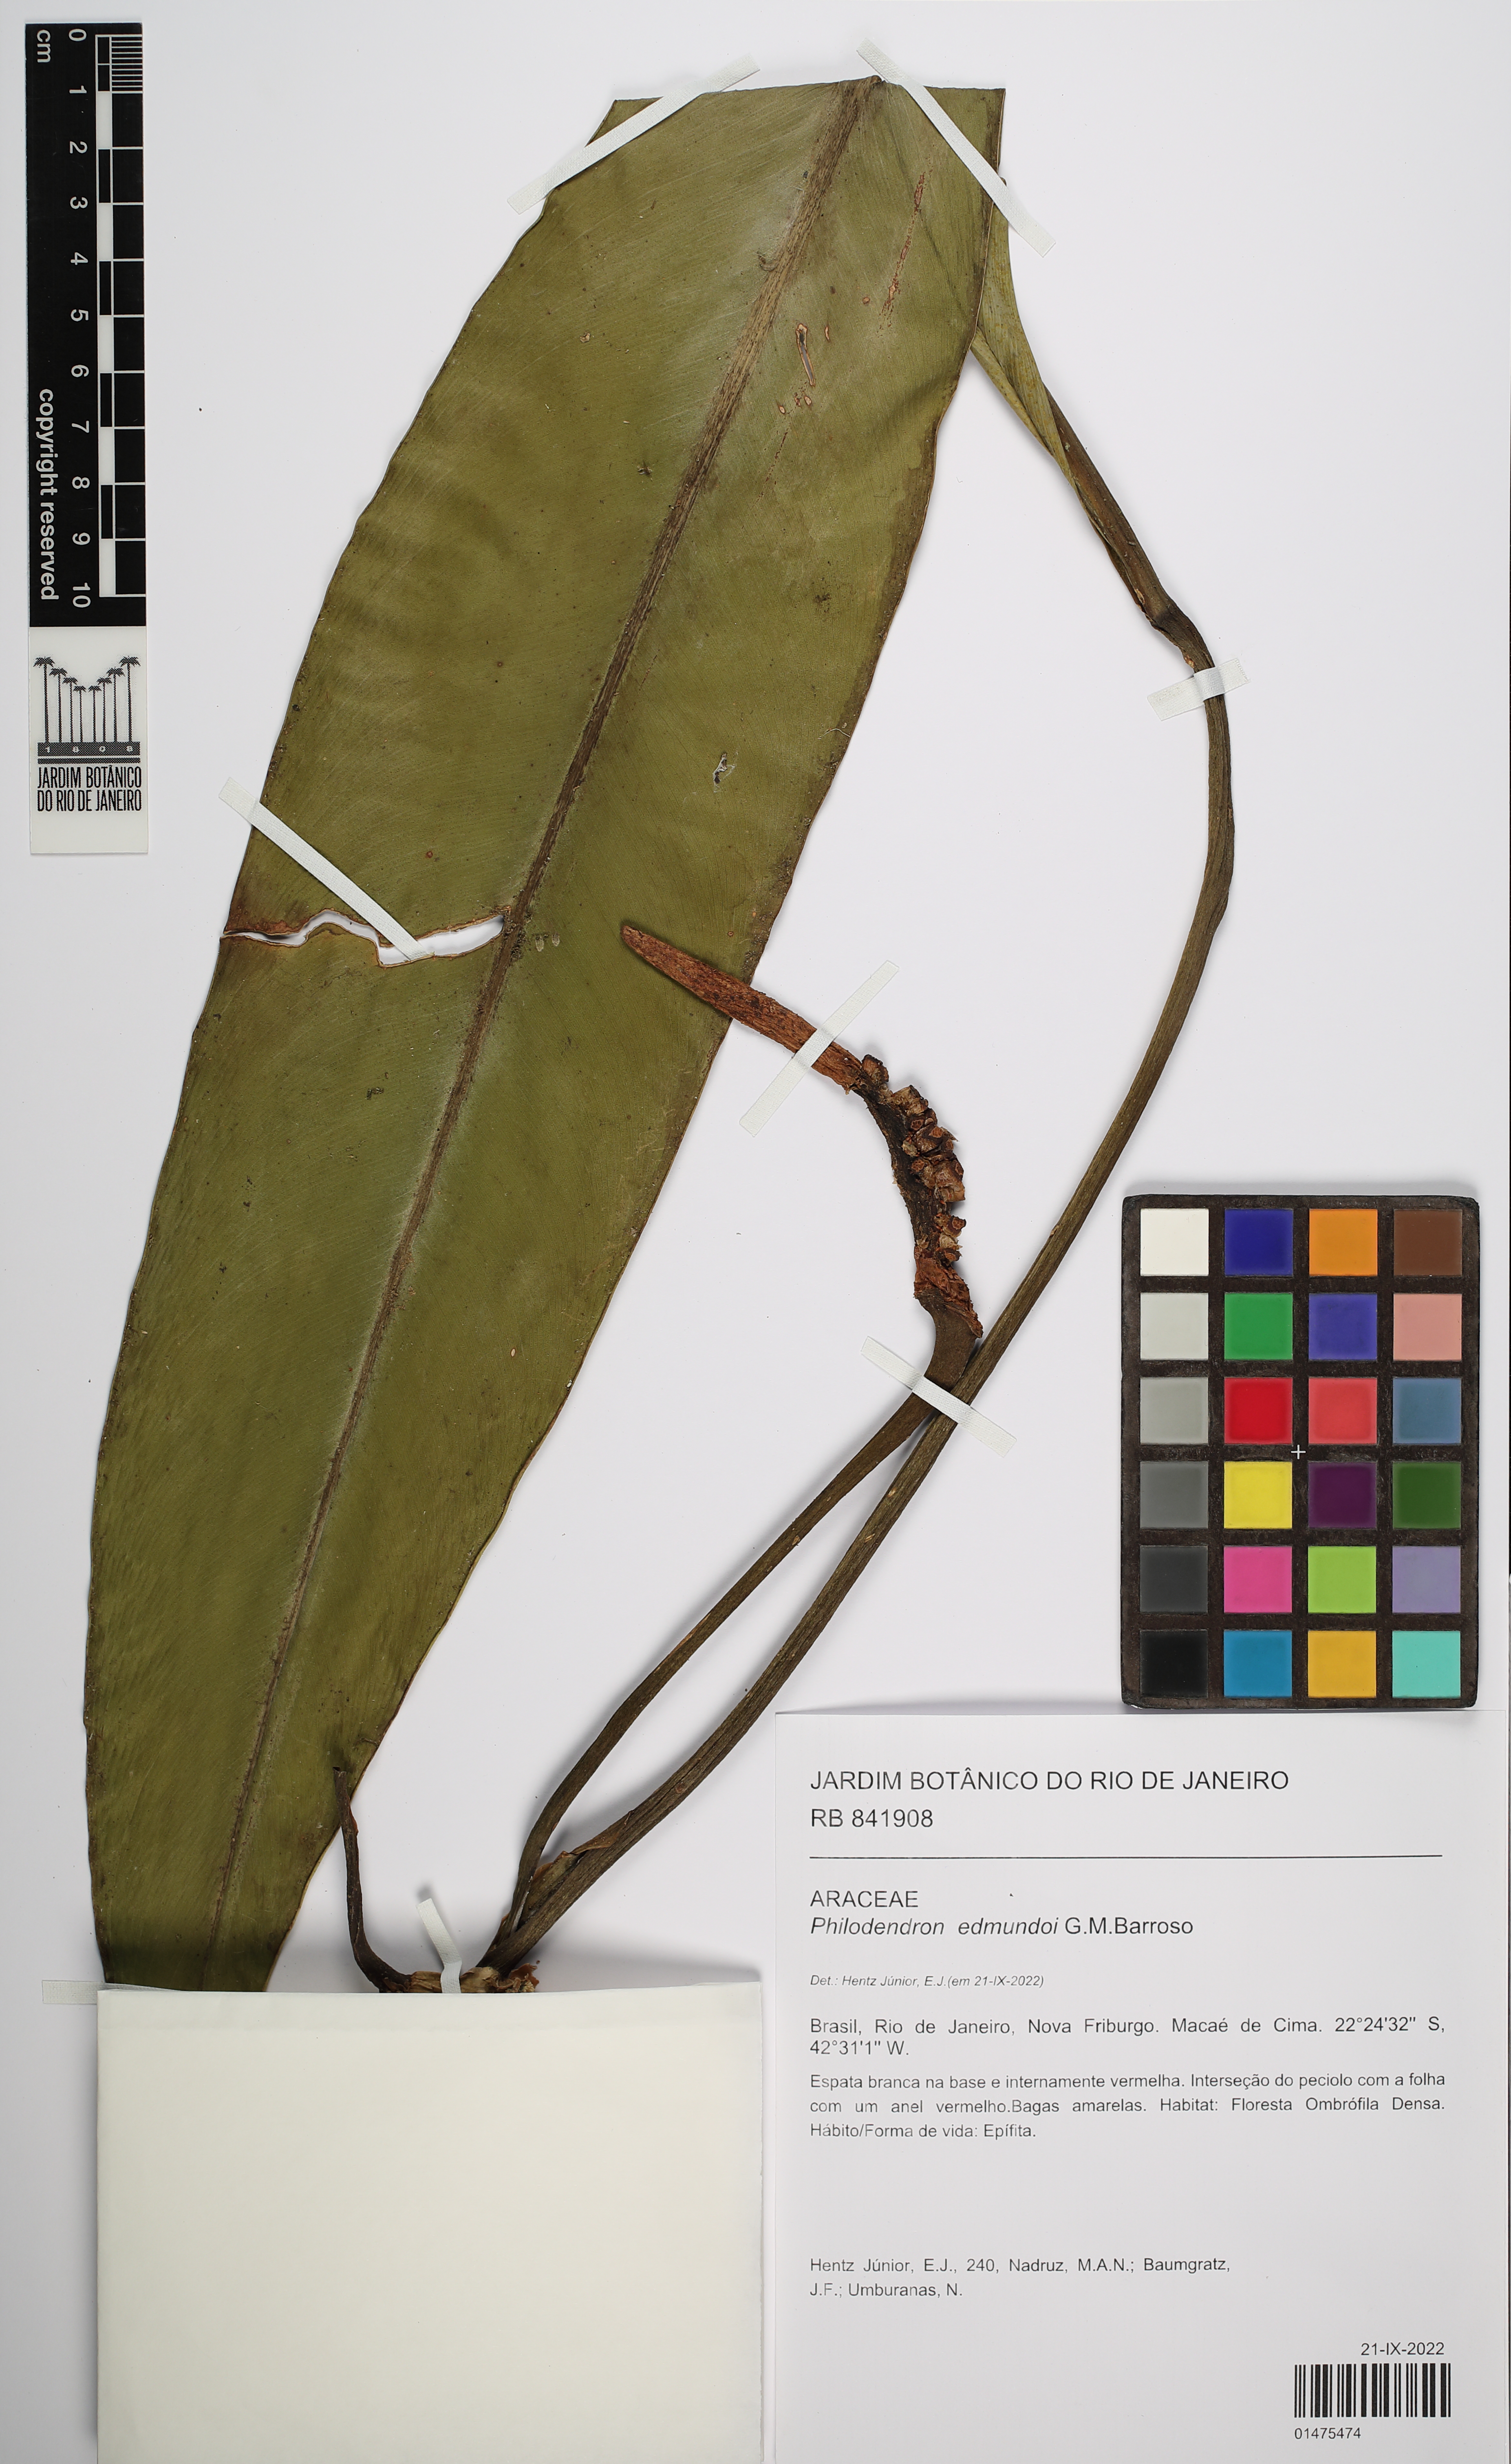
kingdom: Plantae
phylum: Tracheophyta
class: Liliopsida
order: Alismatales
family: Araceae
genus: Philodendron
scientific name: Philodendron edmundoi
